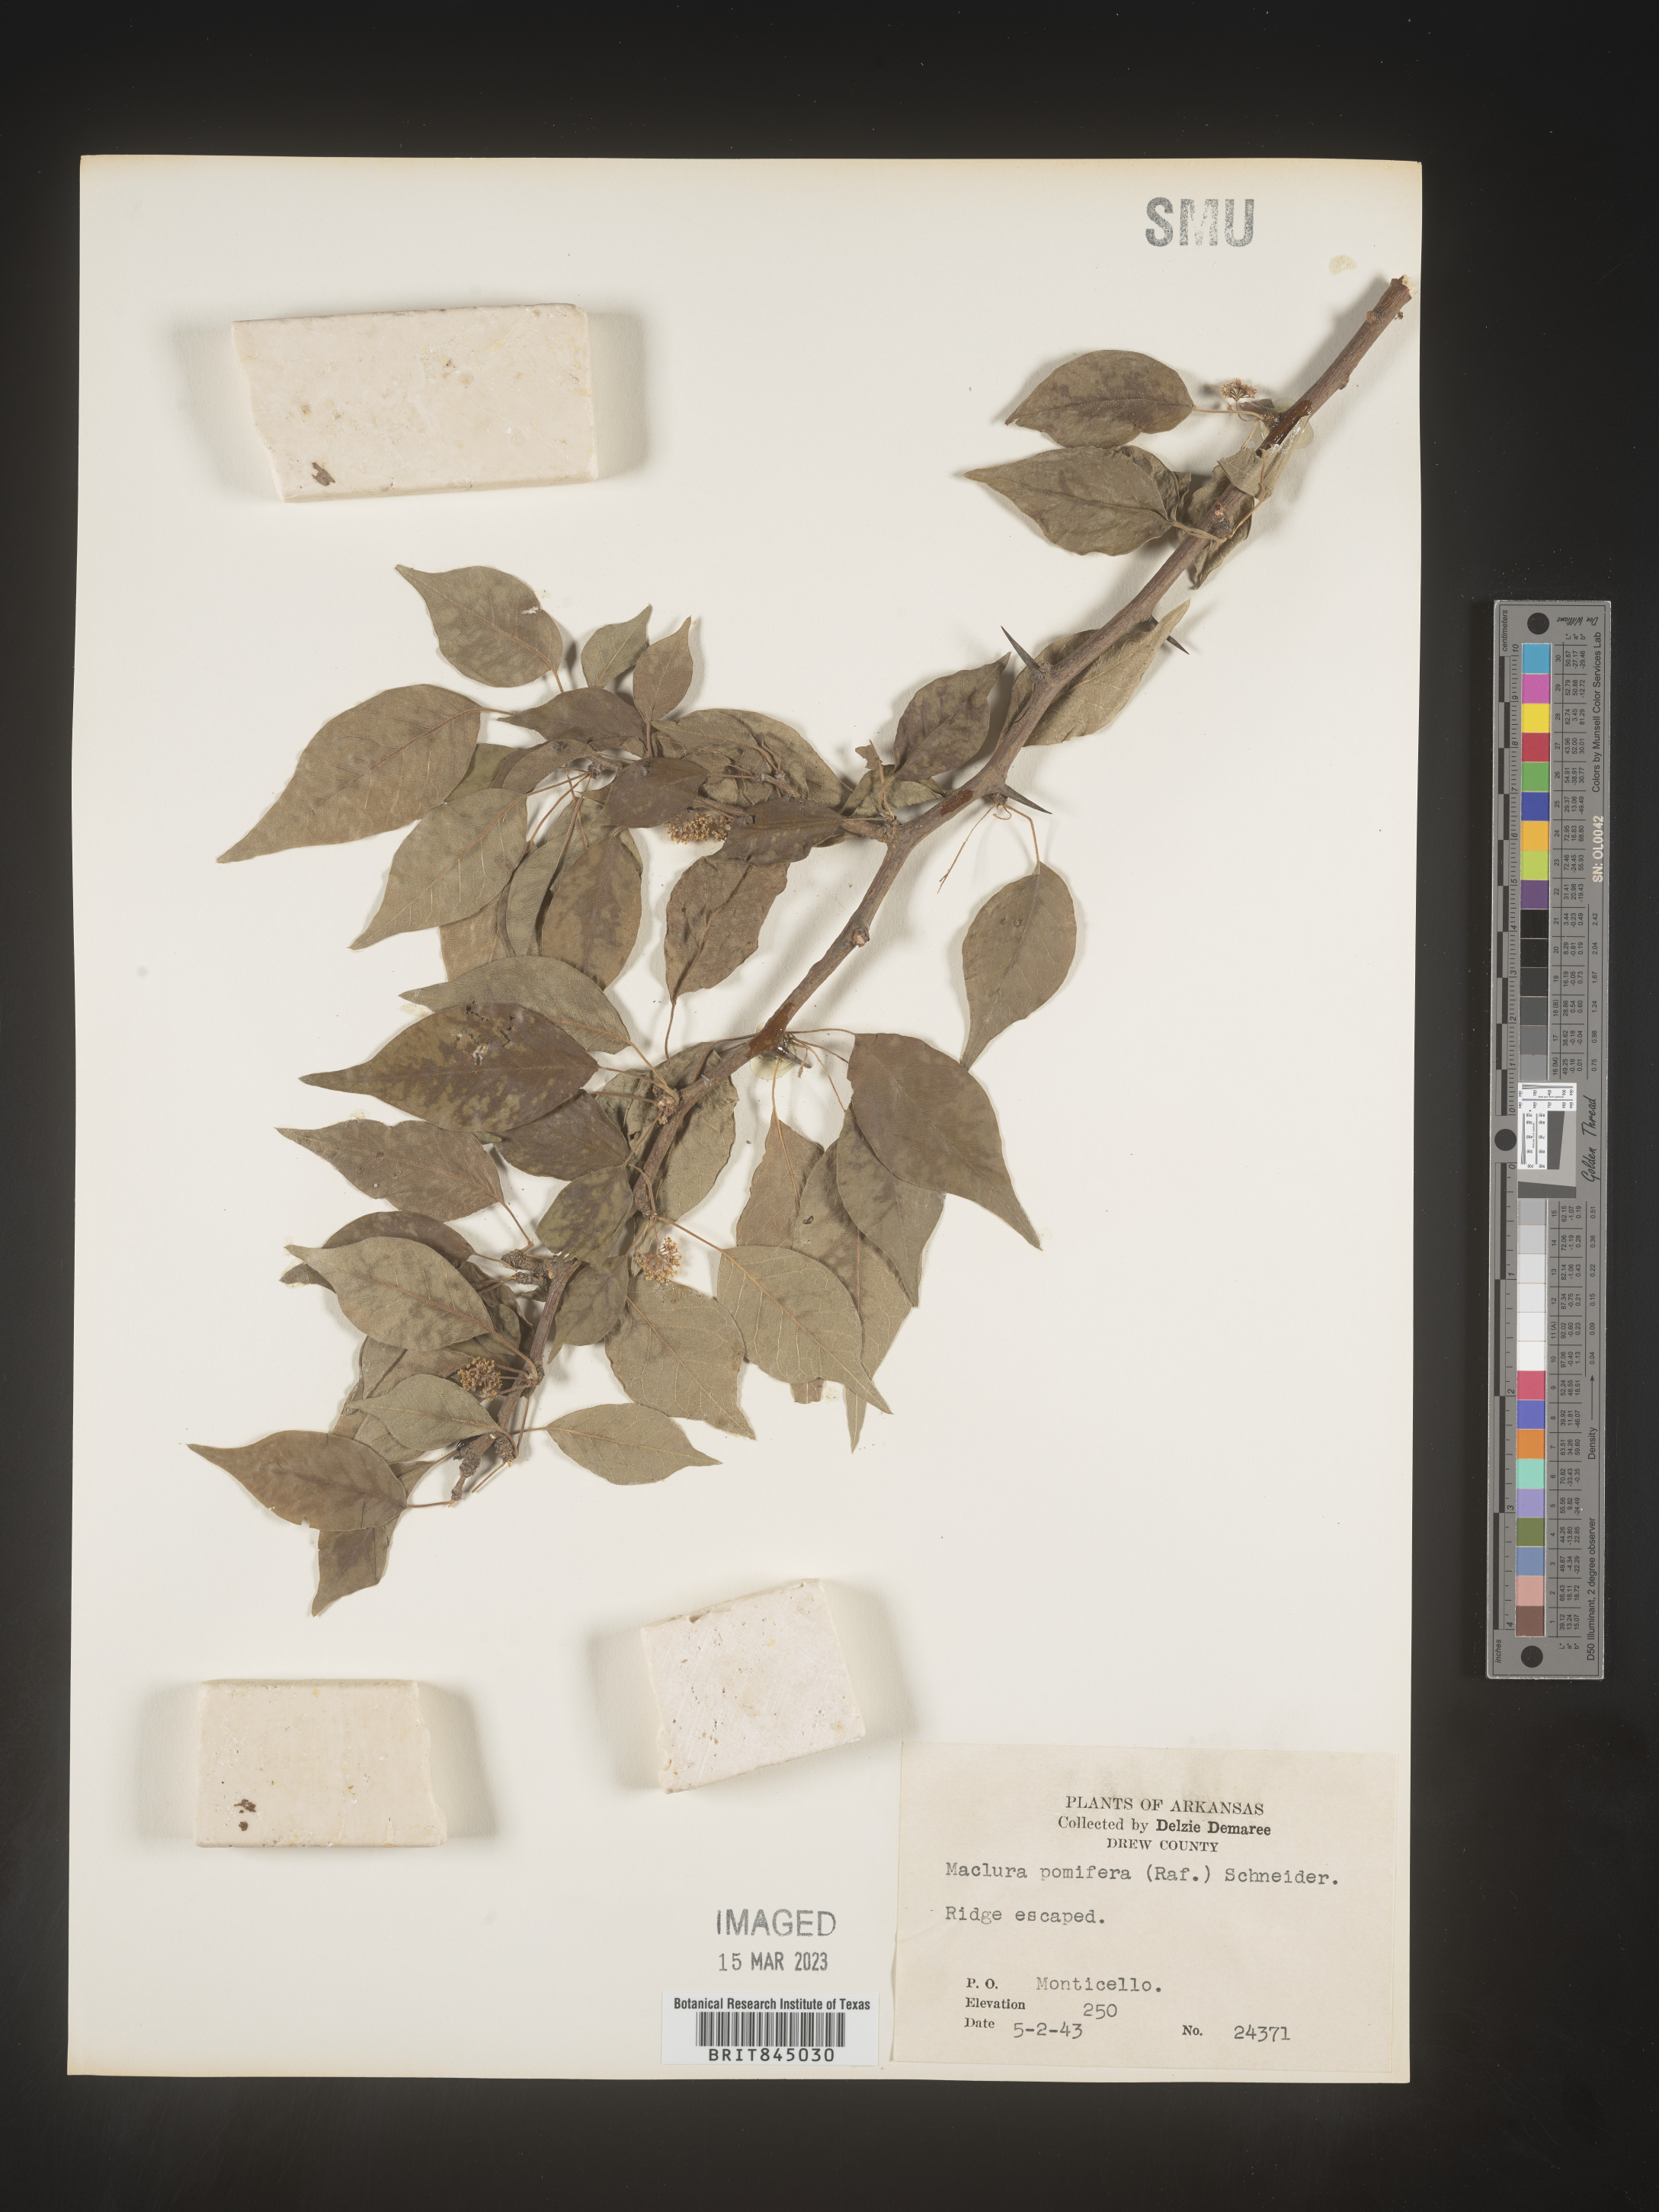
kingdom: Plantae
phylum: Tracheophyta
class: Magnoliopsida
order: Rosales
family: Moraceae
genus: Maclura
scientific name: Maclura pomifera
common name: Osage-orange
